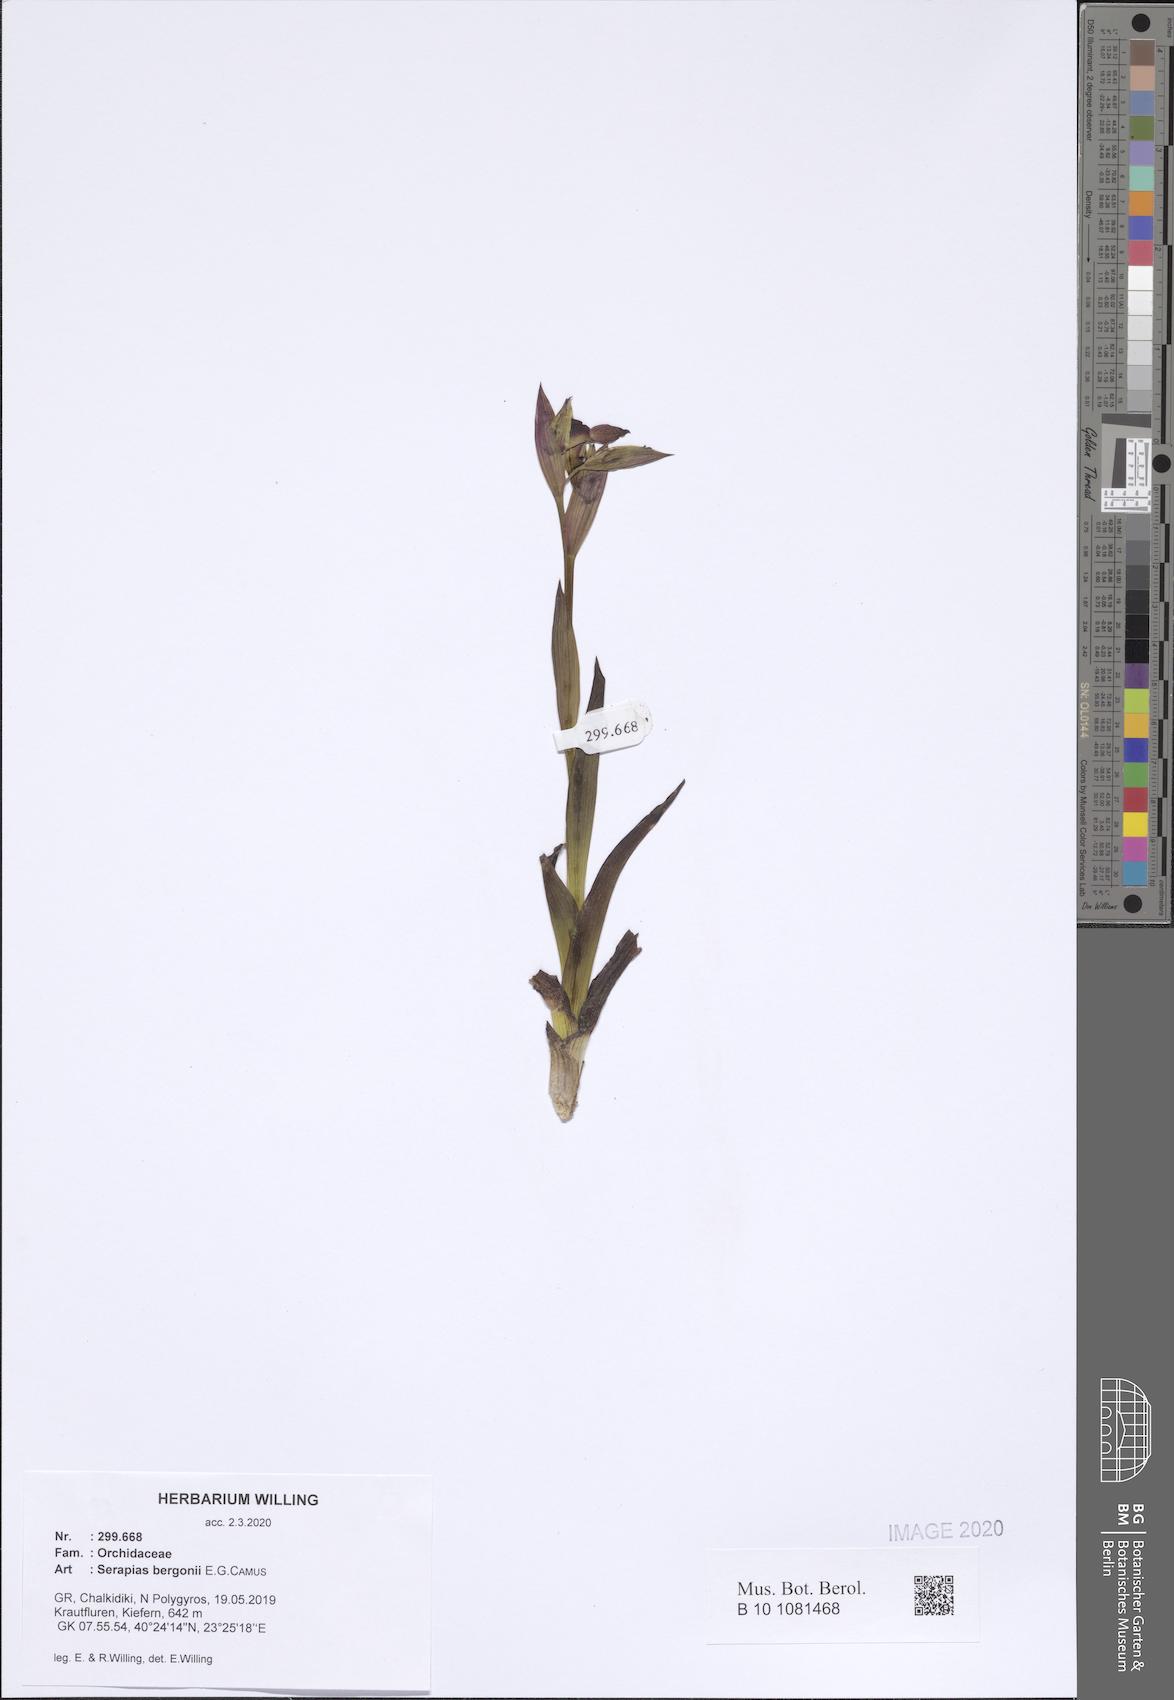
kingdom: Plantae
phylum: Tracheophyta
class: Liliopsida
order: Asparagales
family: Orchidaceae
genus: Serapias
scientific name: Serapias bergonii
